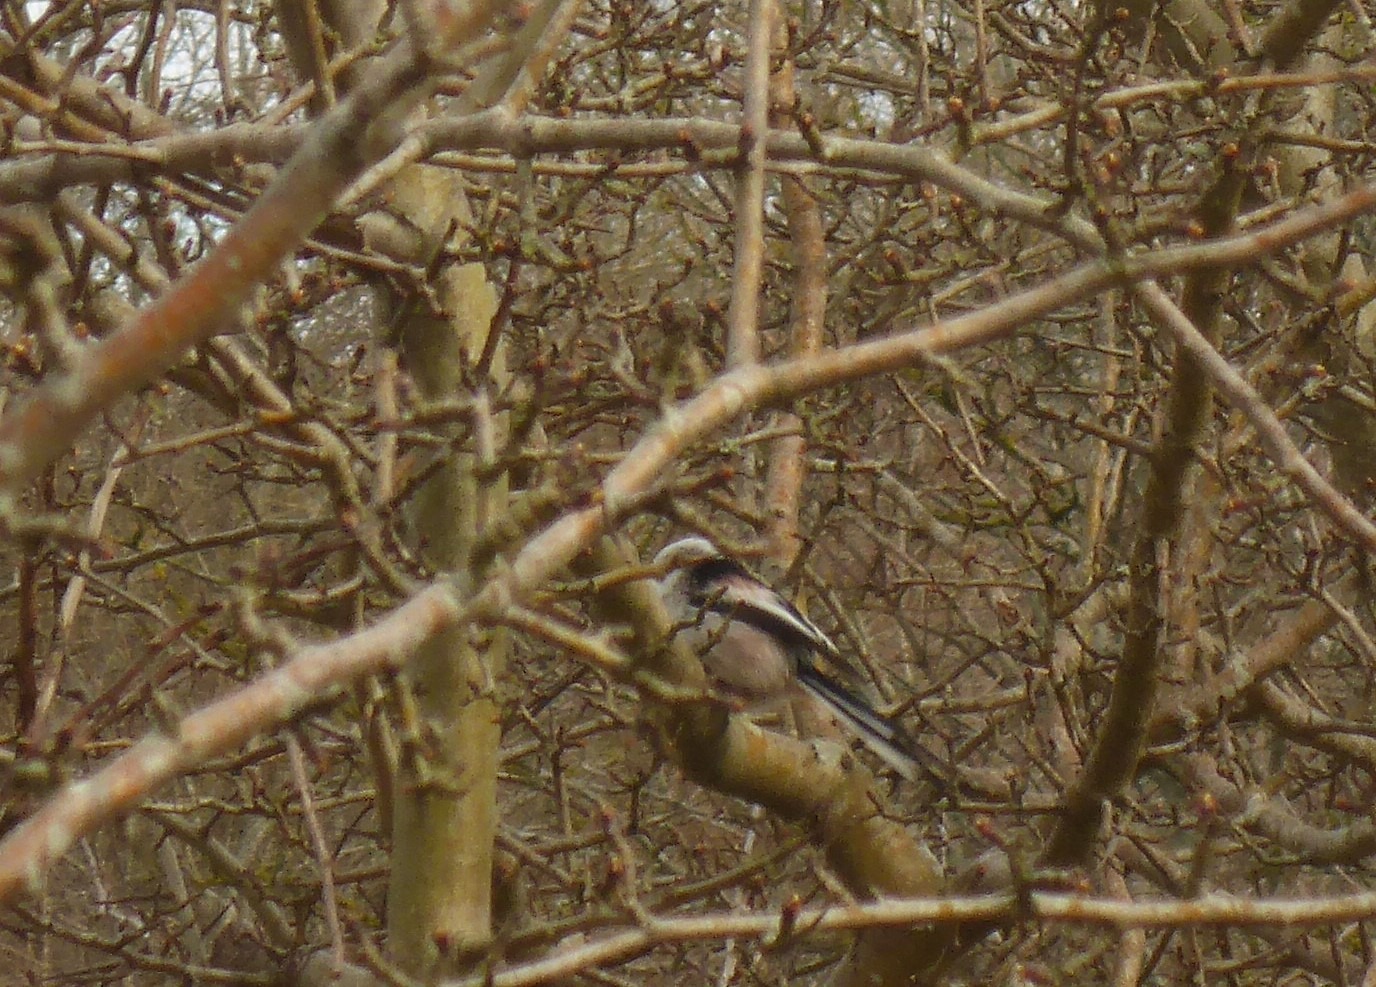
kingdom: Animalia
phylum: Chordata
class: Aves
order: Passeriformes
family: Aegithalidae
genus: Aegithalos
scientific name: Aegithalos caudatus
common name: Halemejse
